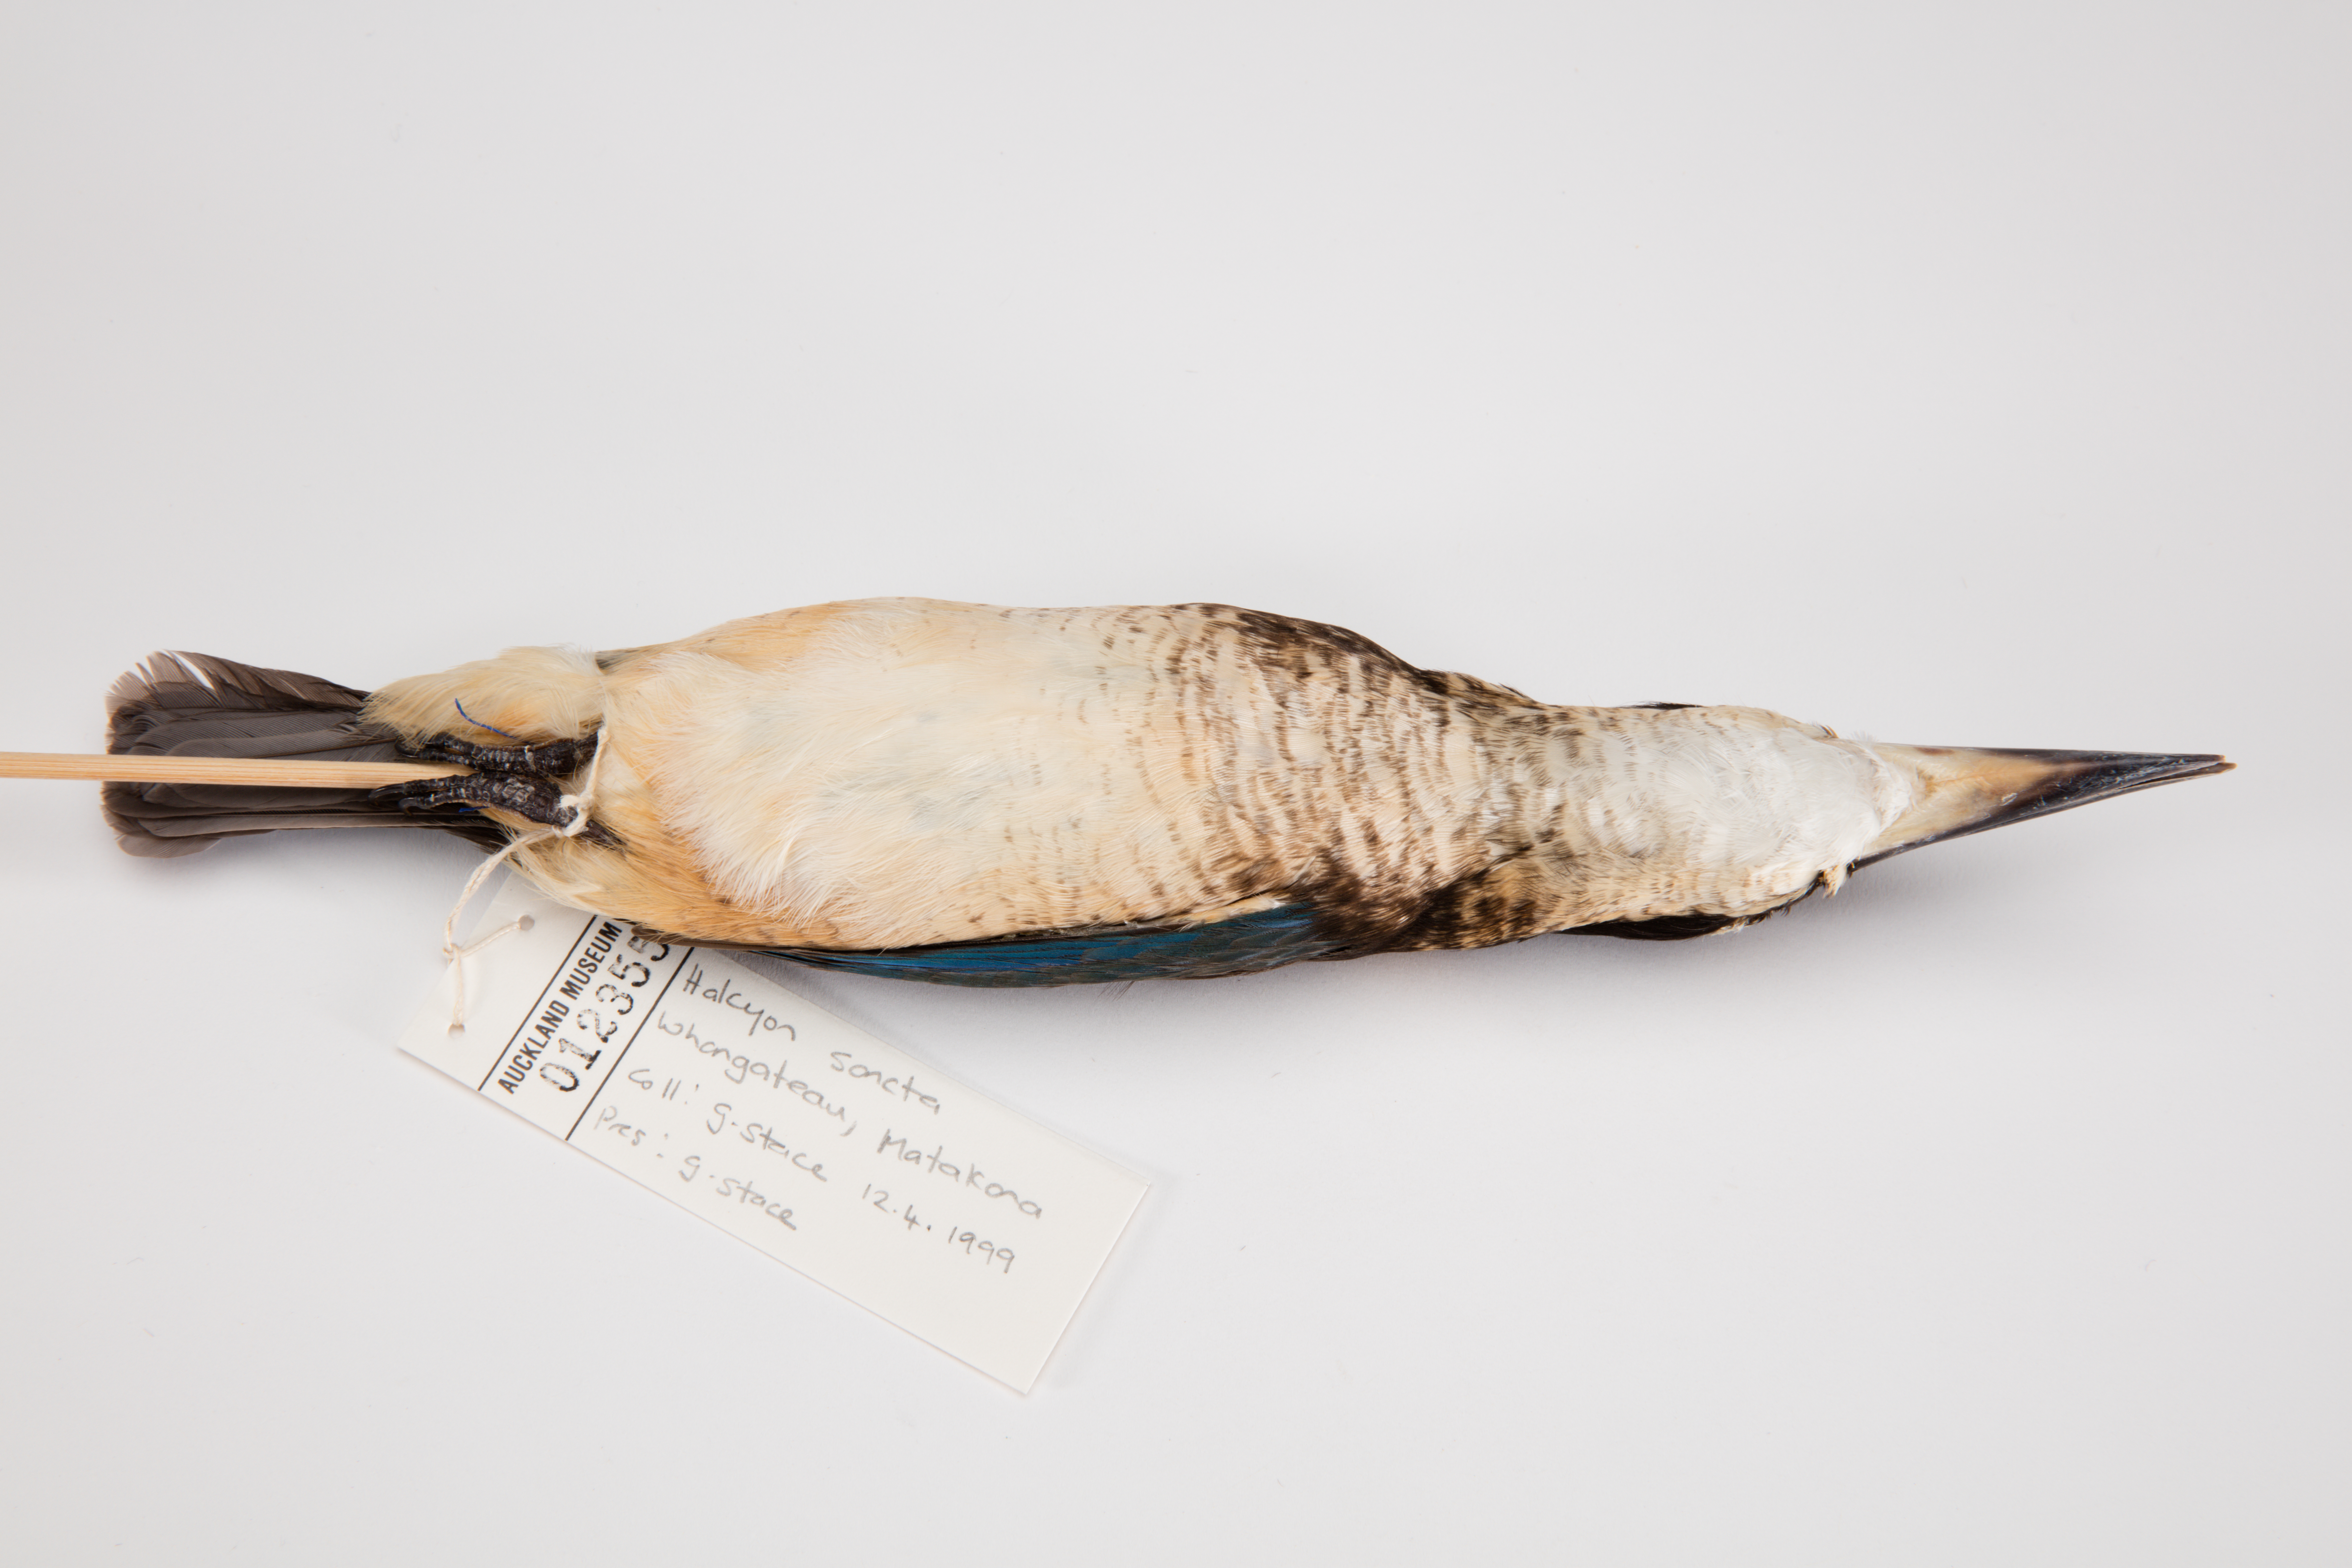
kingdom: Animalia
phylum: Chordata
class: Aves
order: Coraciiformes
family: Alcedinidae
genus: Todiramphus
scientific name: Todiramphus sanctus
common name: Sacred kingfisher
